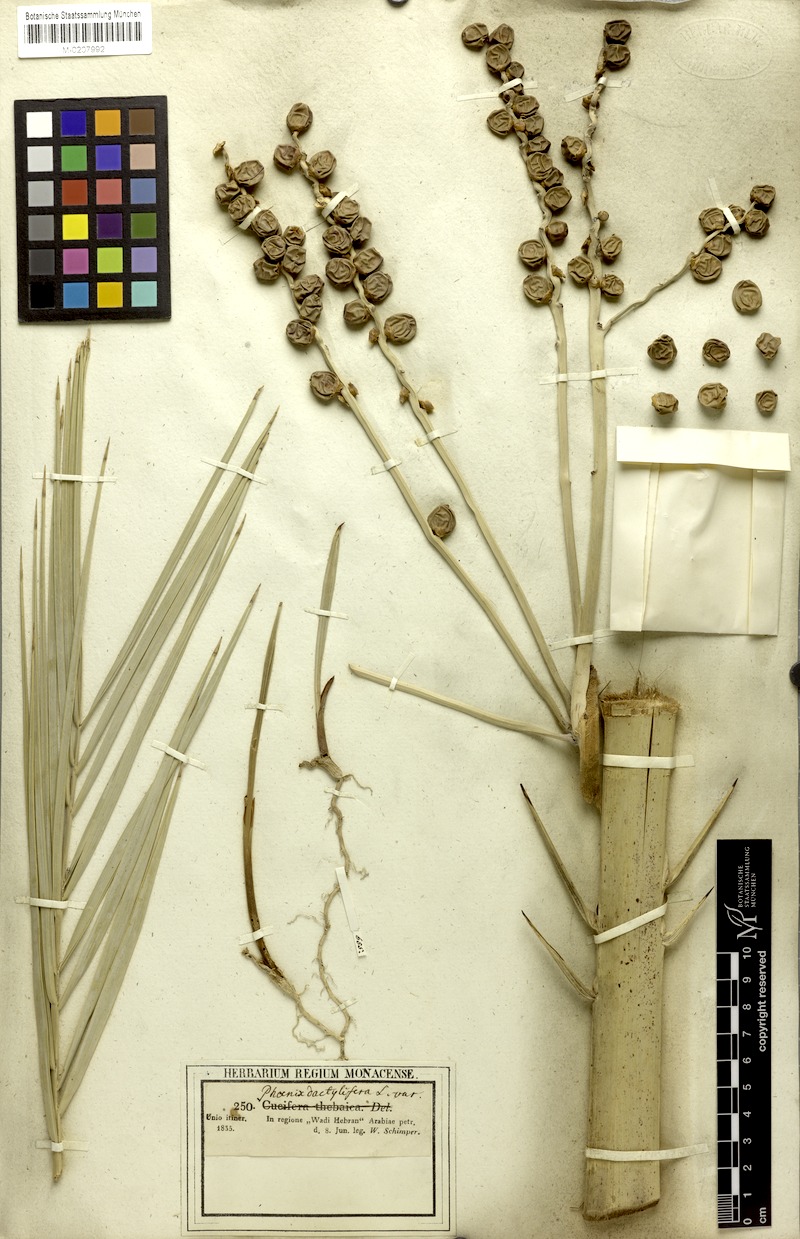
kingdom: Plantae
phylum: Tracheophyta
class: Liliopsida
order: Arecales
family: Arecaceae
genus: Phoenix
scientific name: Phoenix dactylifera
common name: Date palm
